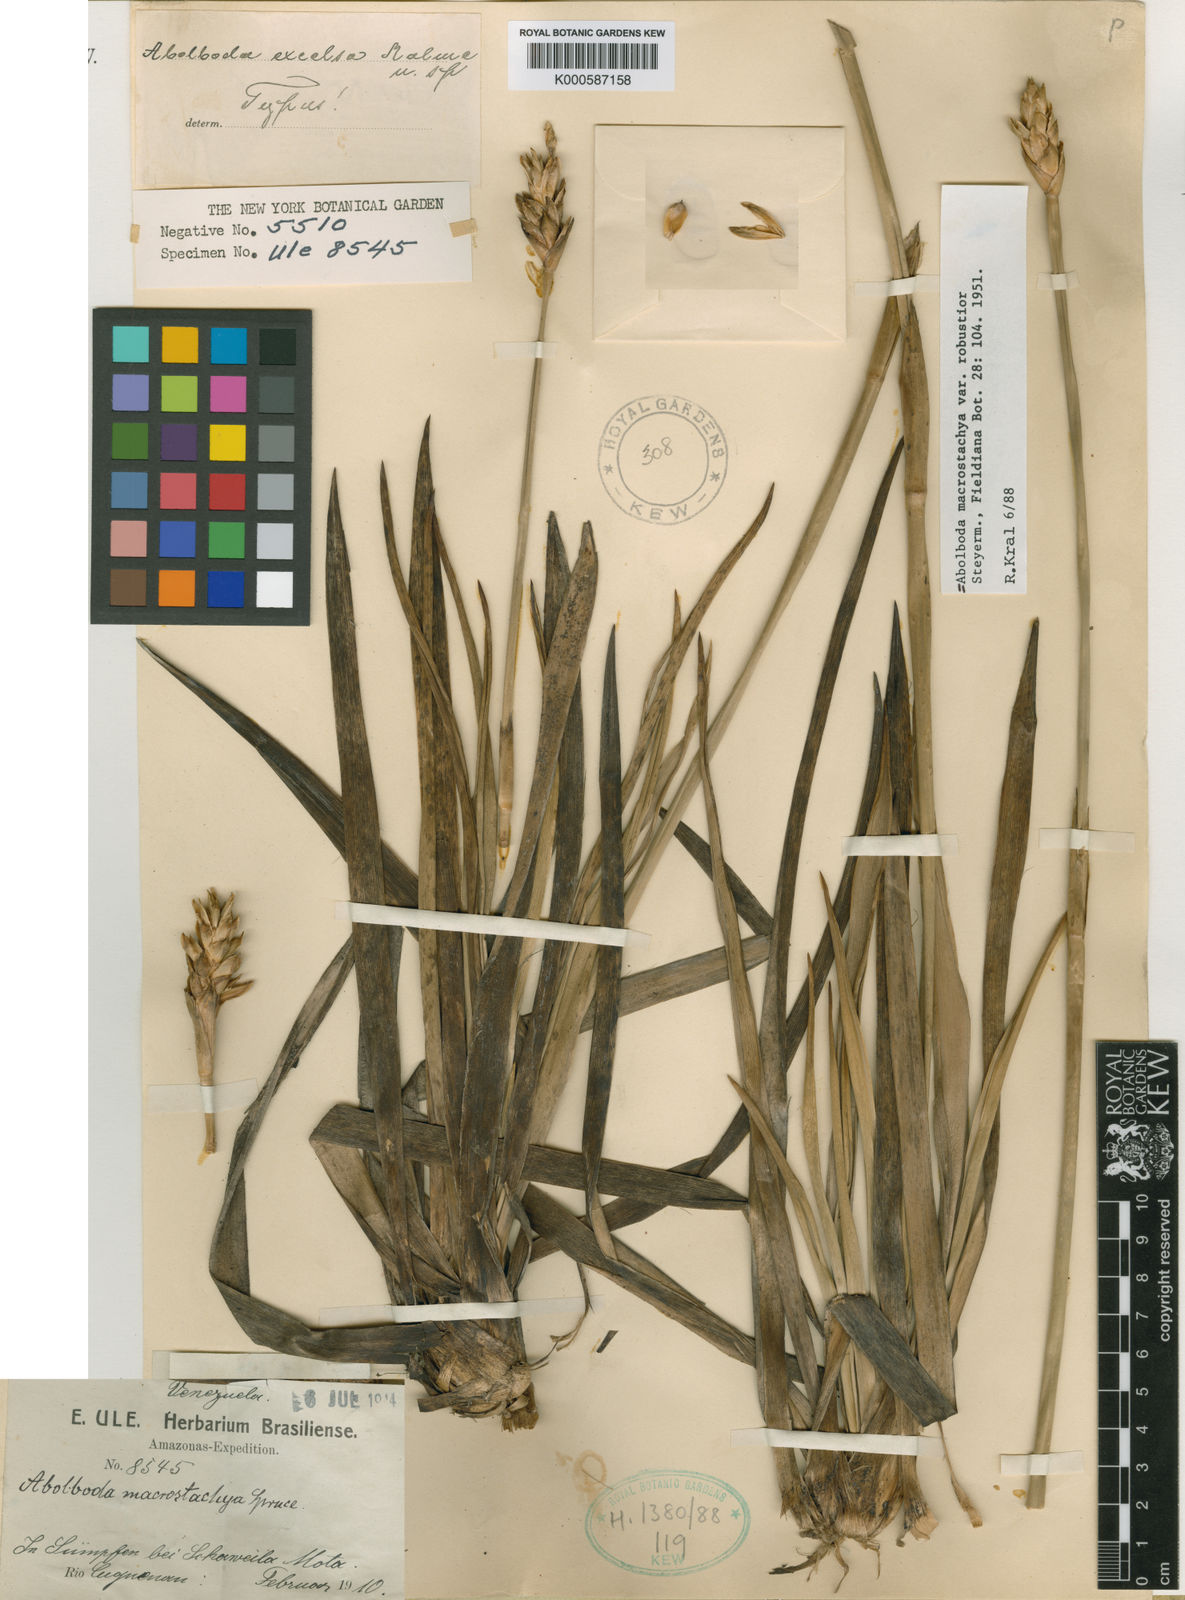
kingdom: Plantae
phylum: Tracheophyta
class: Liliopsida
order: Poales
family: Xyridaceae
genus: Abolboda
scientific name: Abolboda macrostachya
